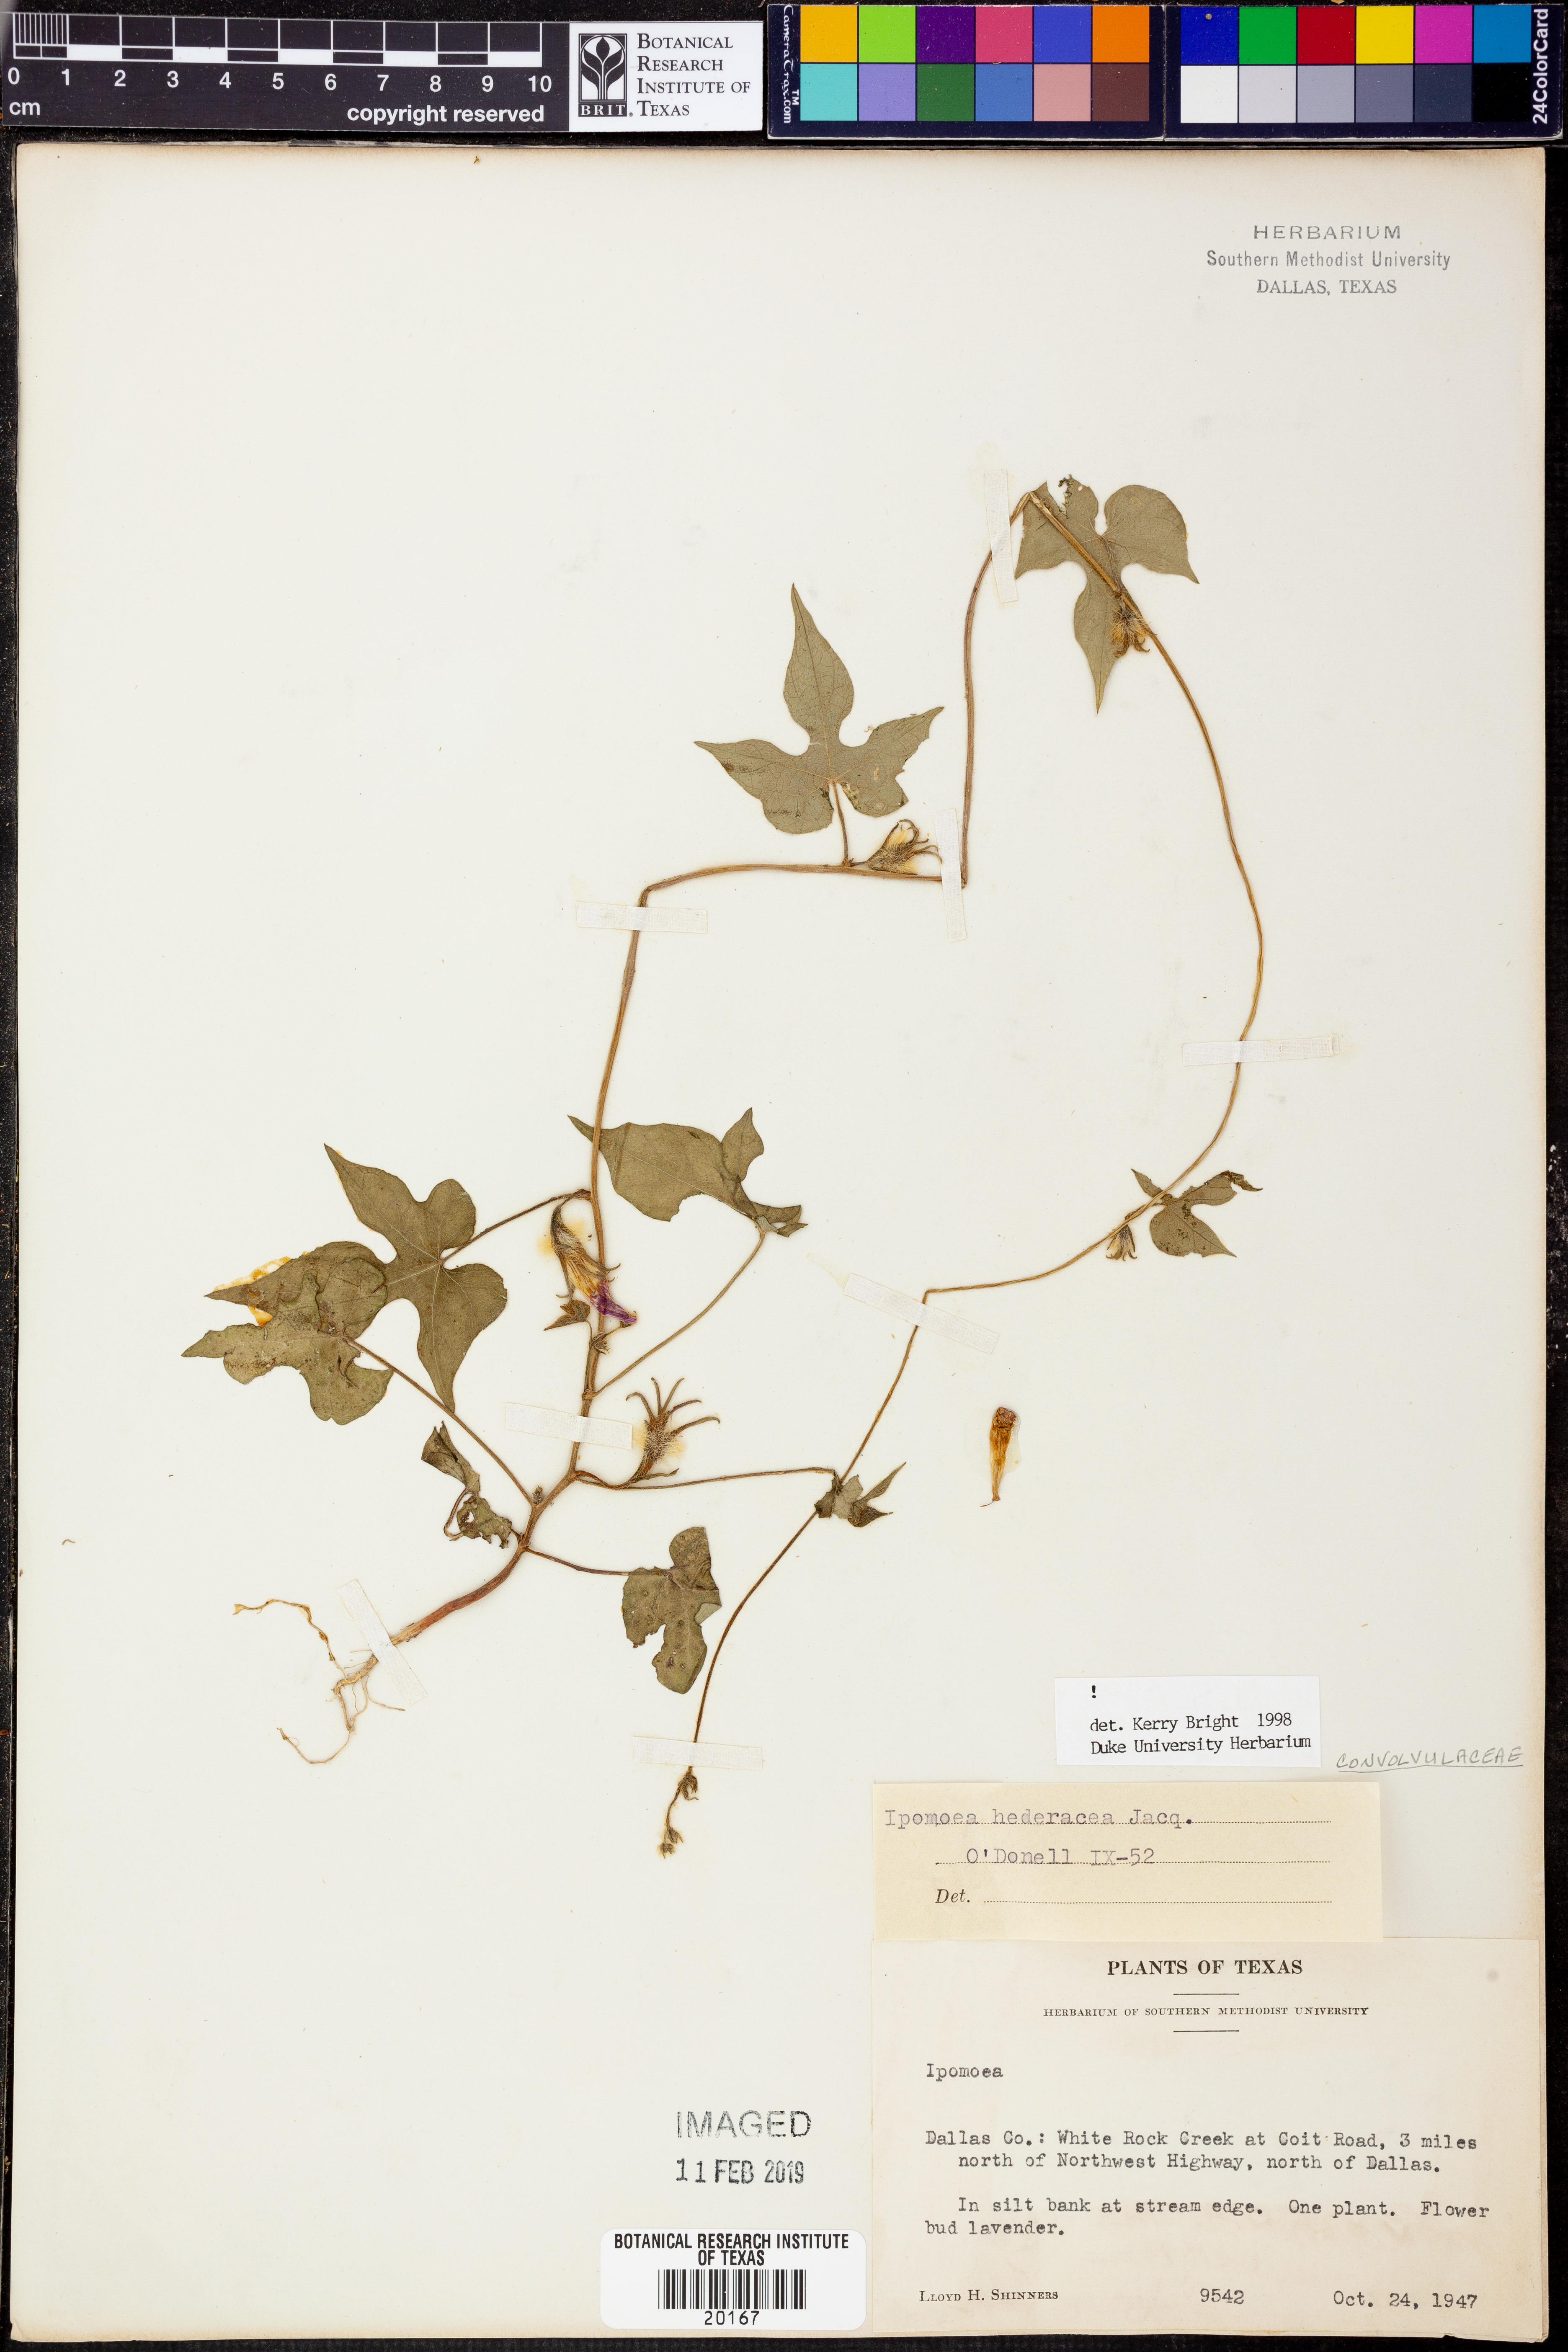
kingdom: Plantae
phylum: Tracheophyta
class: Magnoliopsida
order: Solanales
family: Convolvulaceae
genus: Ipomoea
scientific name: Ipomoea hederacea
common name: Ivy-leaved morning-glory
